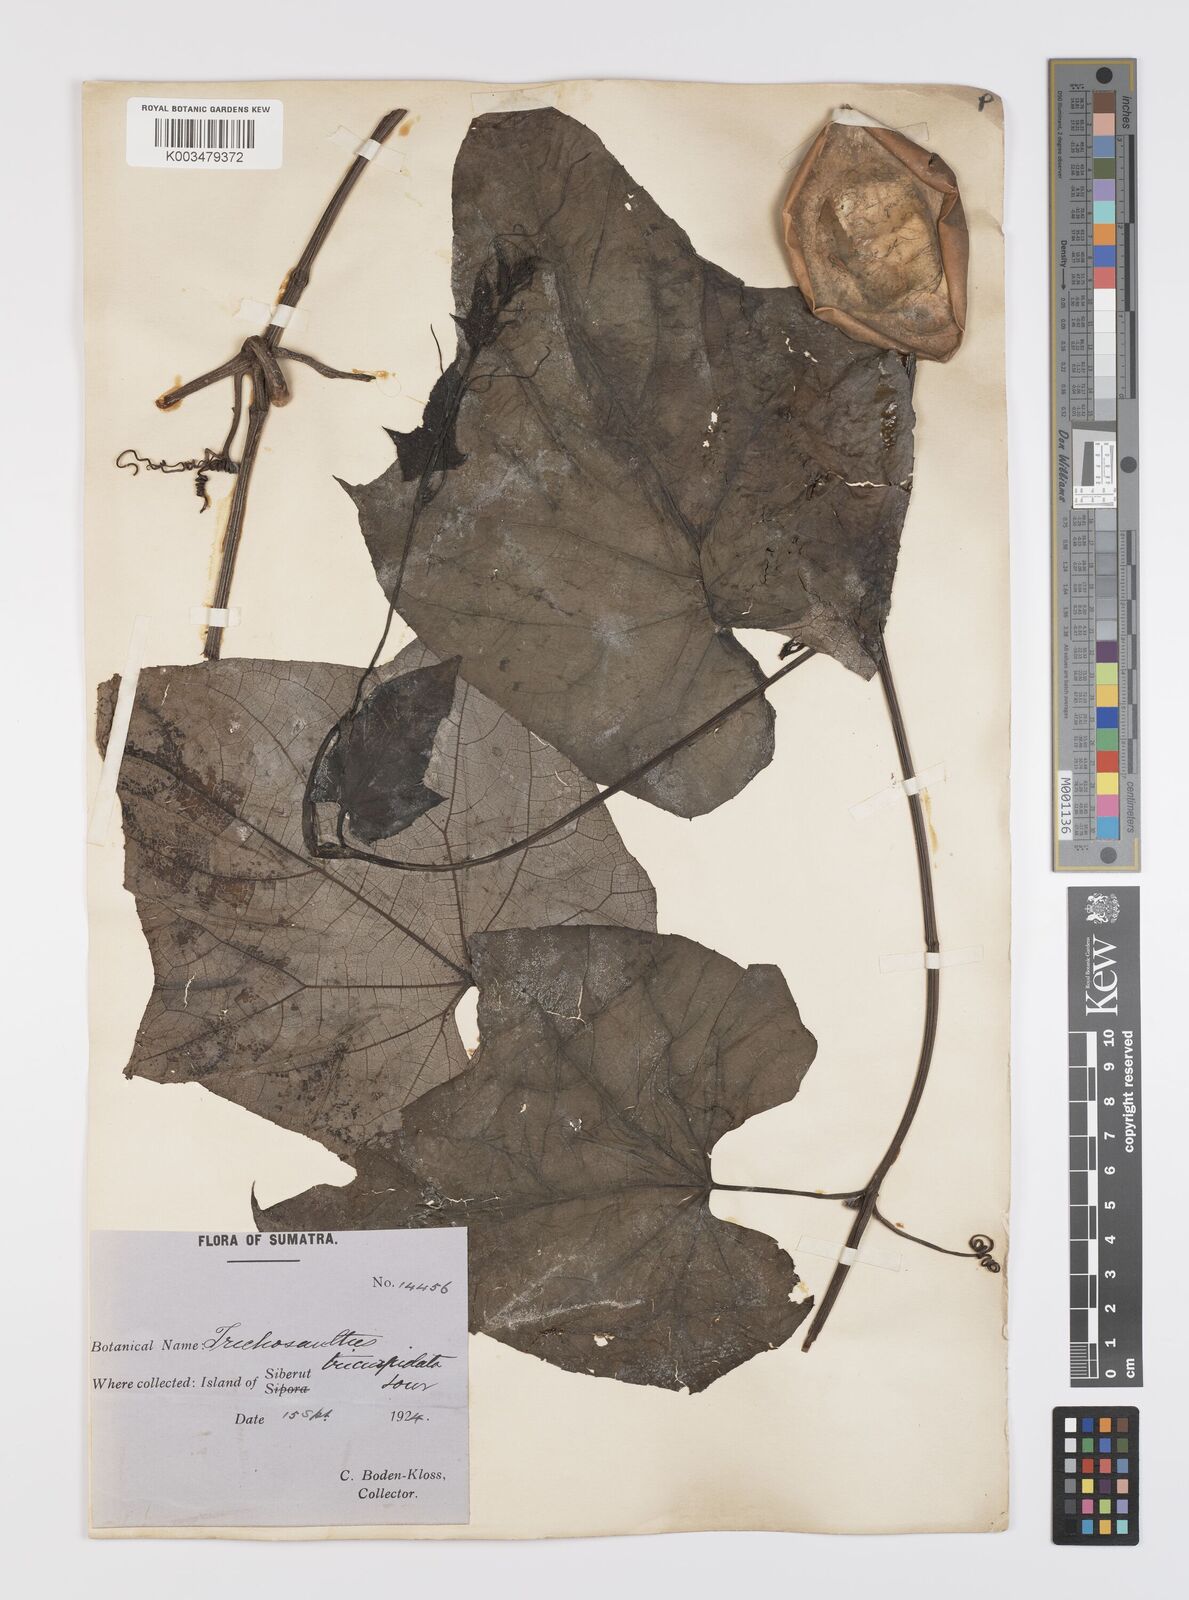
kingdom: Plantae
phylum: Tracheophyta
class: Magnoliopsida
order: Cucurbitales
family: Cucurbitaceae
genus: Trichosanthes
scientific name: Trichosanthes tricuspidata
